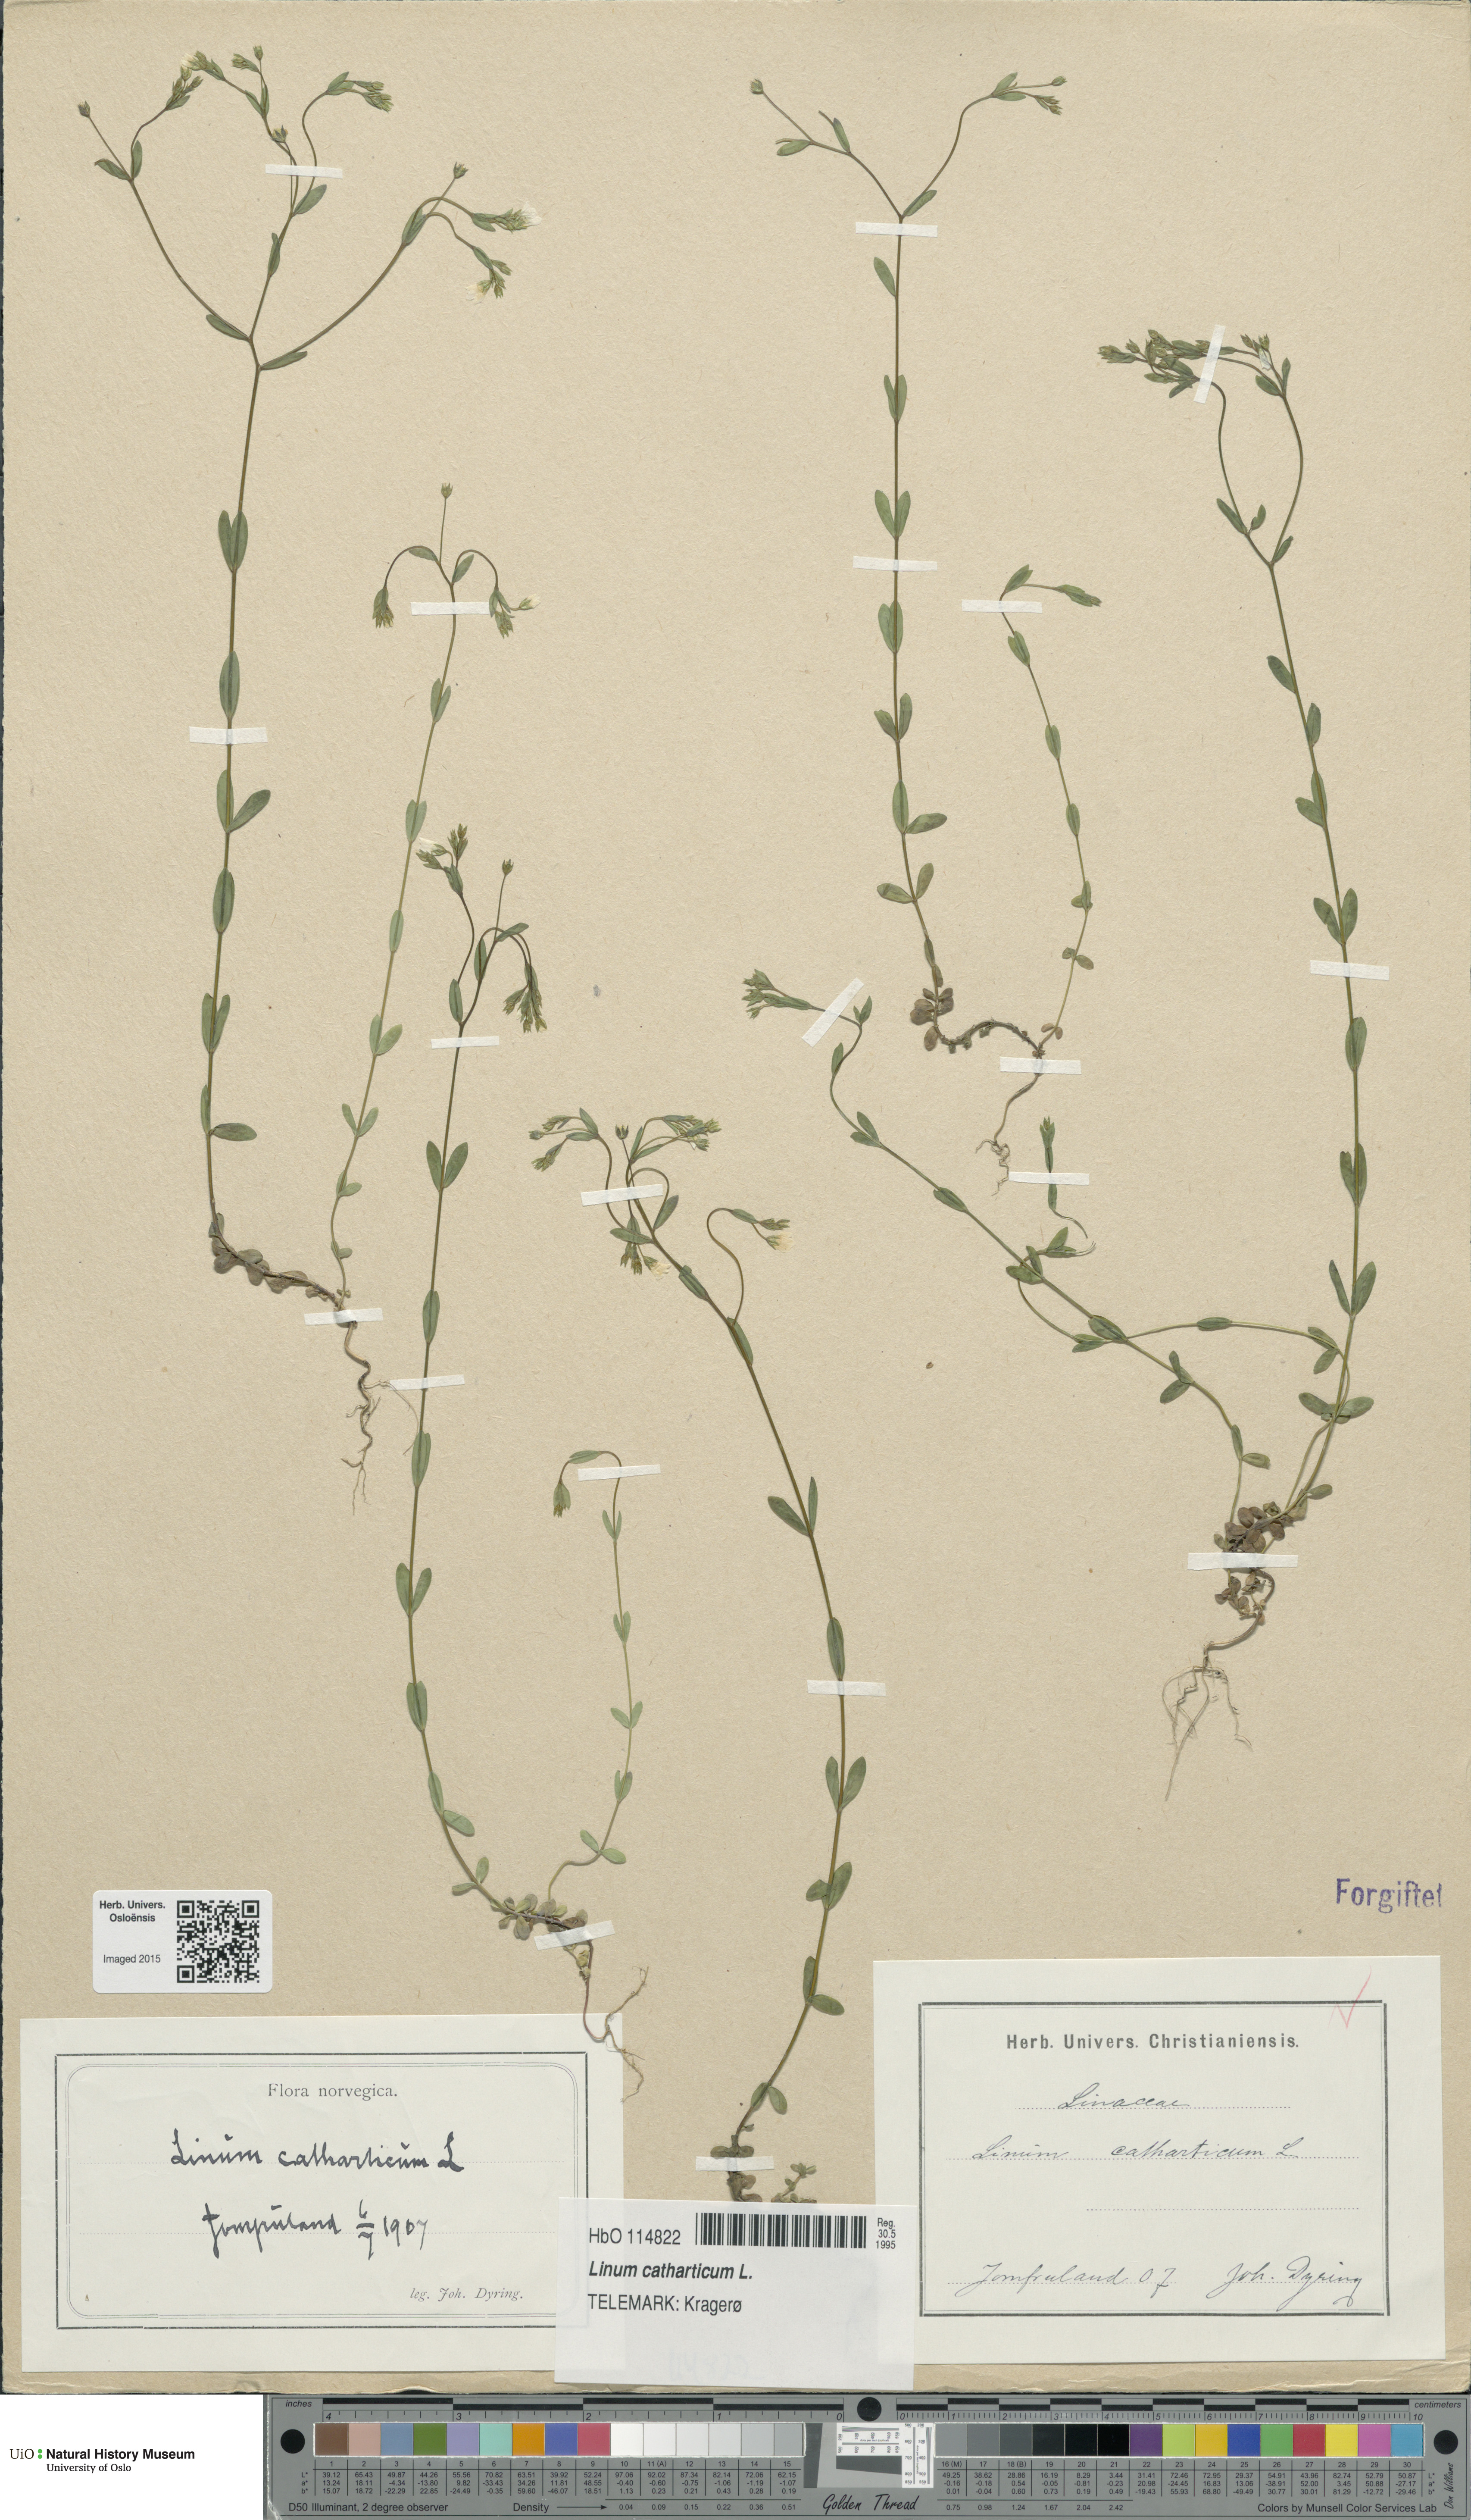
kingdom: Plantae
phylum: Tracheophyta
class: Magnoliopsida
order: Malpighiales
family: Linaceae
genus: Linum
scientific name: Linum catharticum
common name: Fairy flax
